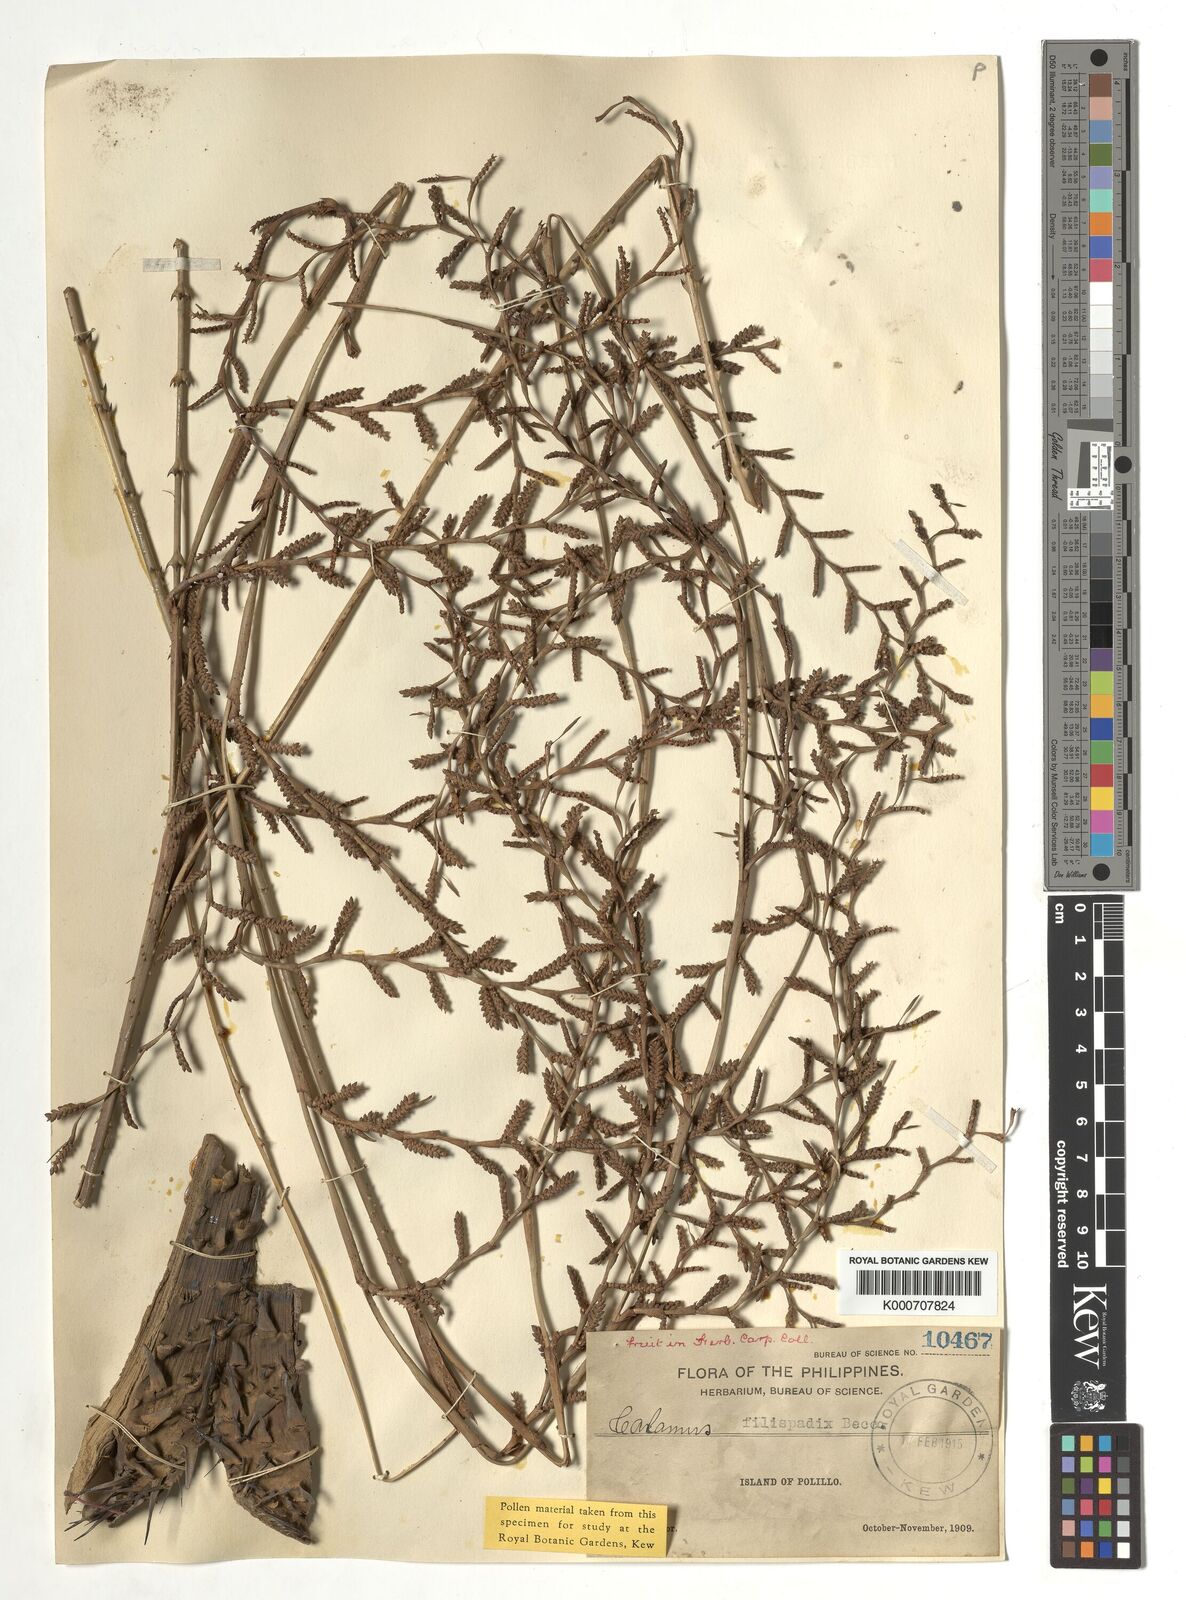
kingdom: Plantae
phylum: Tracheophyta
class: Liliopsida
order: Arecales
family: Arecaceae
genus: Calamus
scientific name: Calamus filispadix
